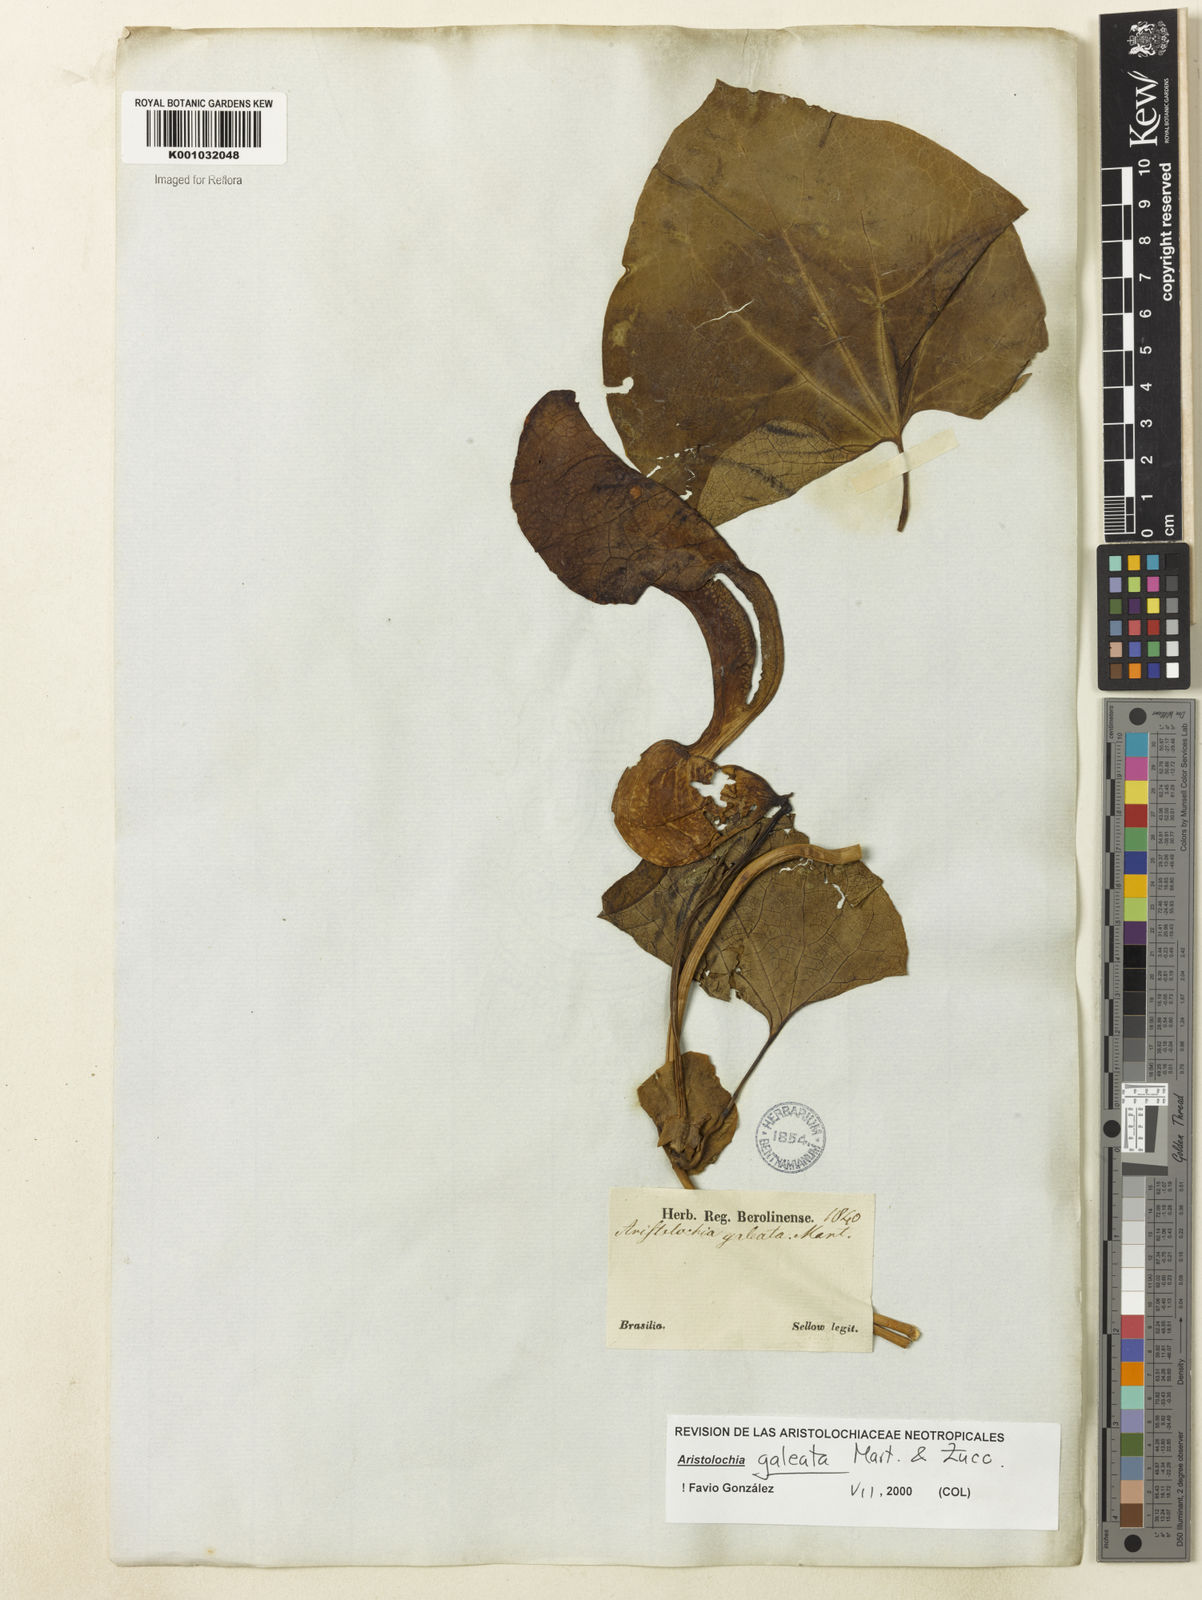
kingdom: Plantae
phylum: Tracheophyta
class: Magnoliopsida
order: Piperales
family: Aristolochiaceae
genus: Aristolochia
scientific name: Aristolochia
